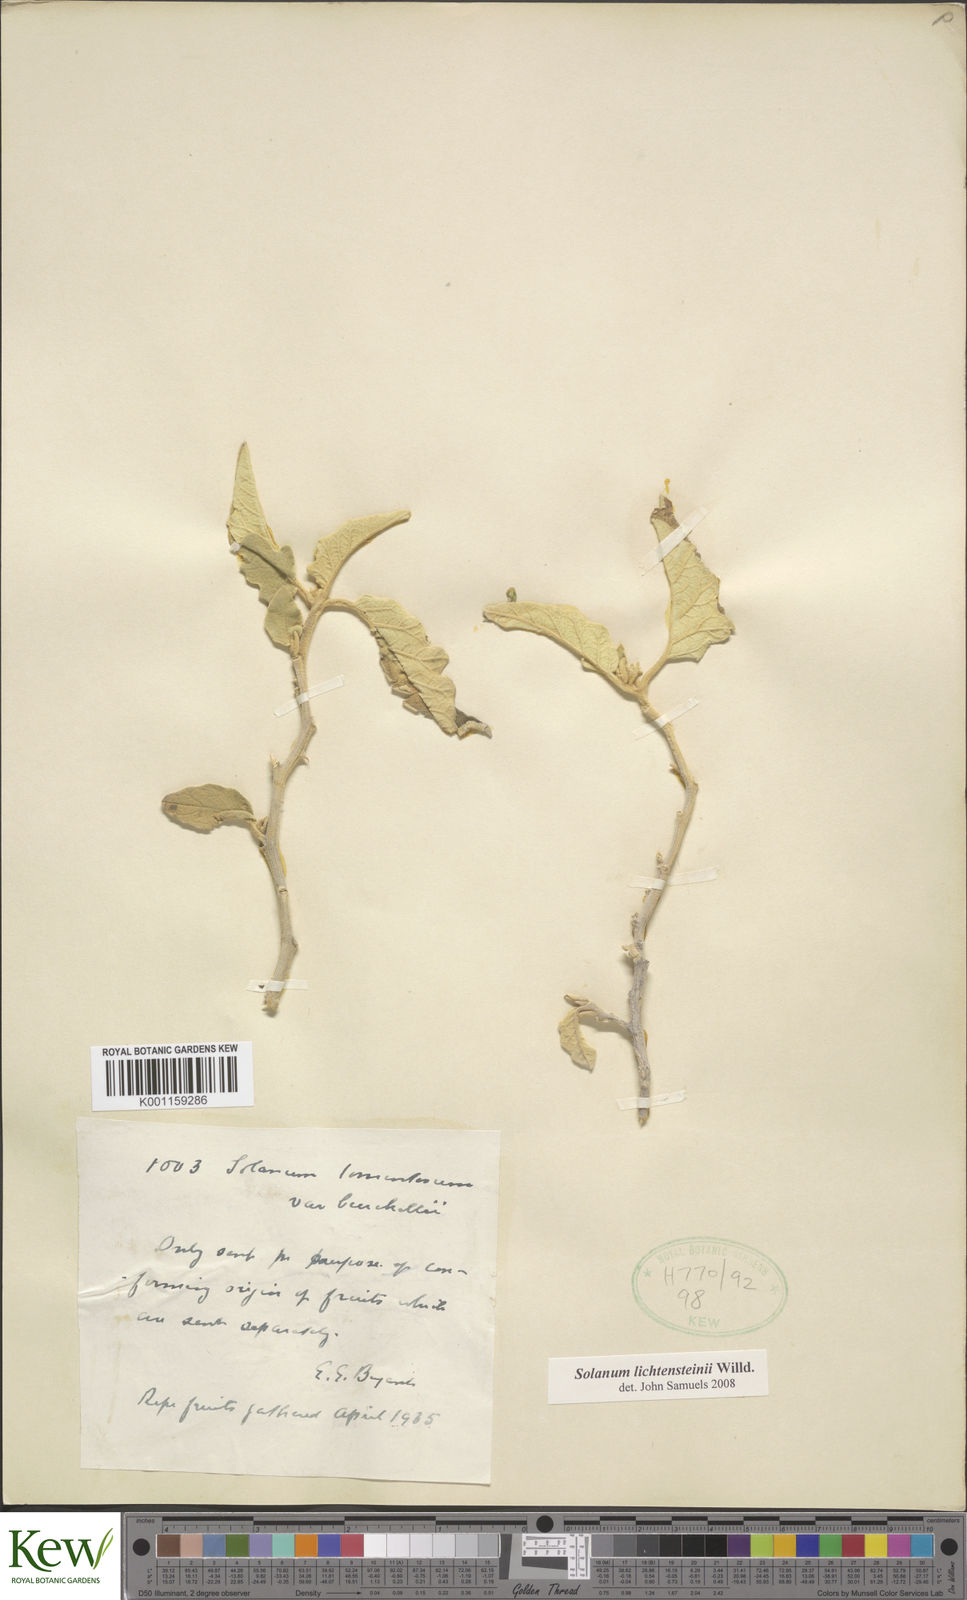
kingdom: Plantae
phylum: Tracheophyta
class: Magnoliopsida
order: Solanales
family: Solanaceae
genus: Solanum
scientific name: Solanum lichtensteinii
